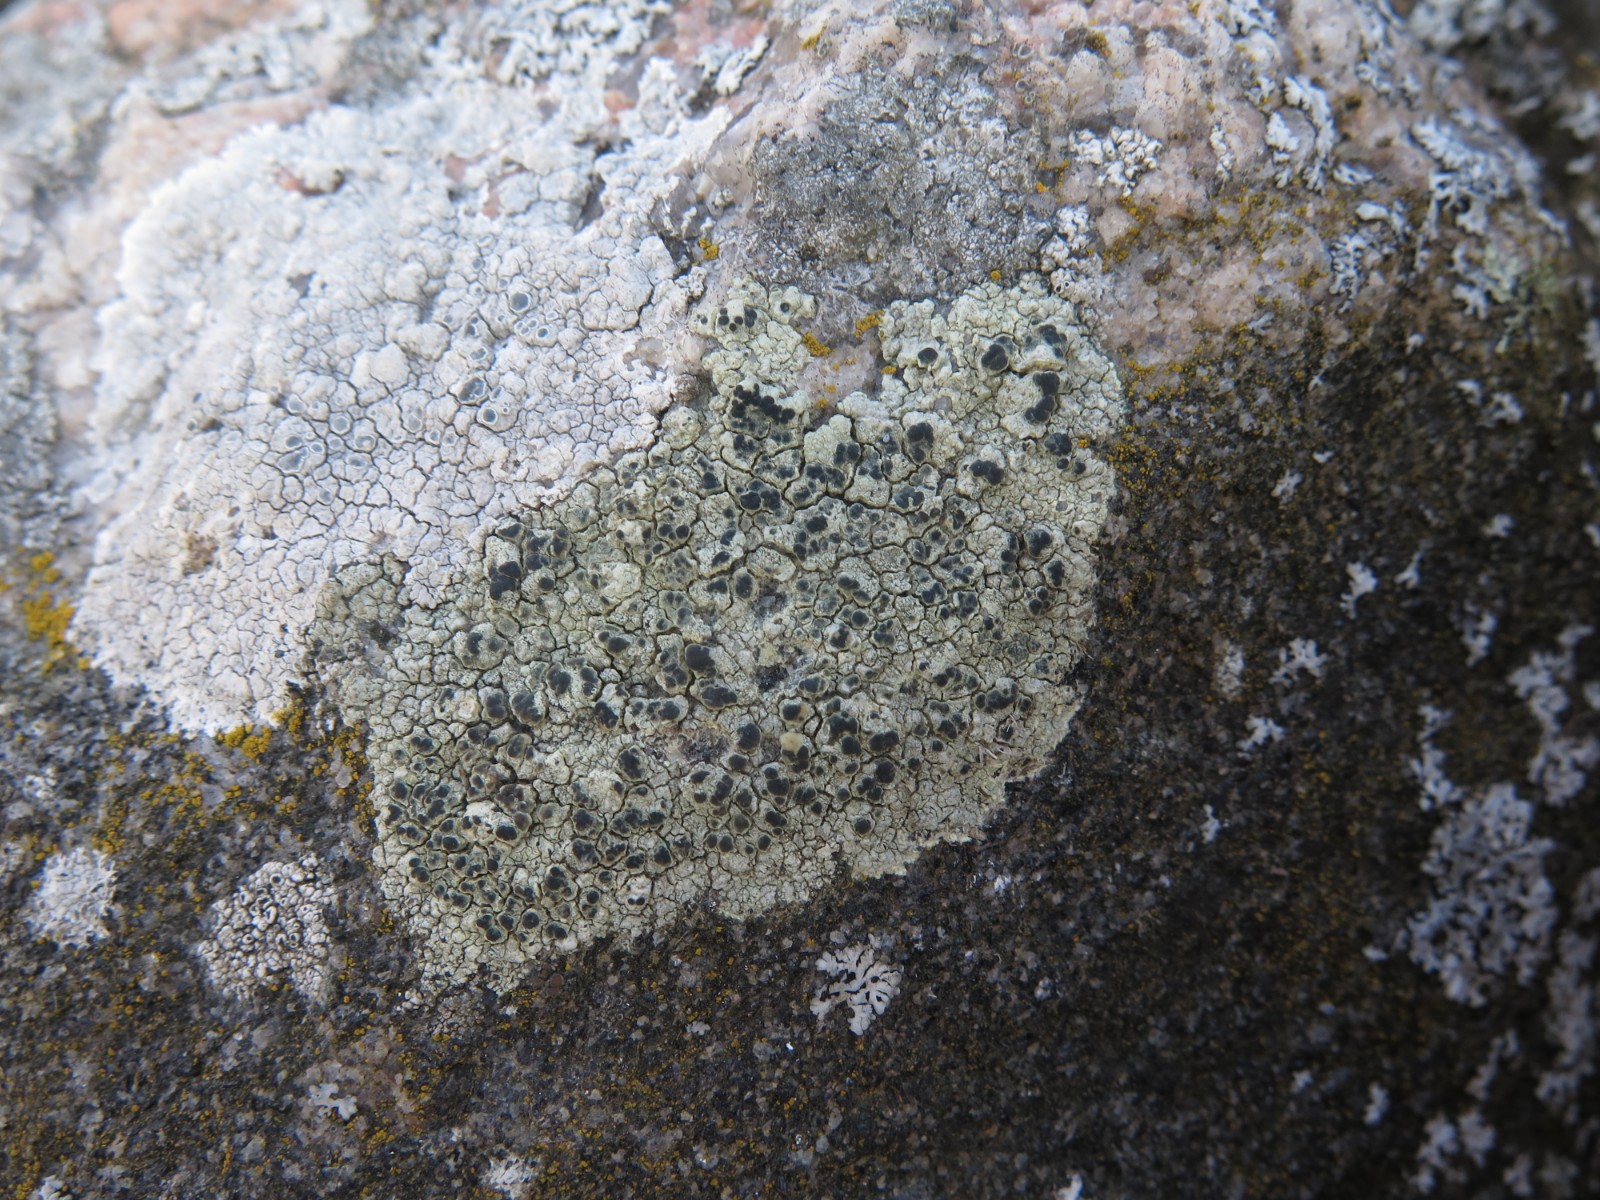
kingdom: Fungi
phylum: Ascomycota
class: Lecanoromycetes
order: Lecanorales
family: Lecanoraceae
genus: Glaucomaria
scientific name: Glaucomaria sulphurea
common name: svovlgul kantskivelav
